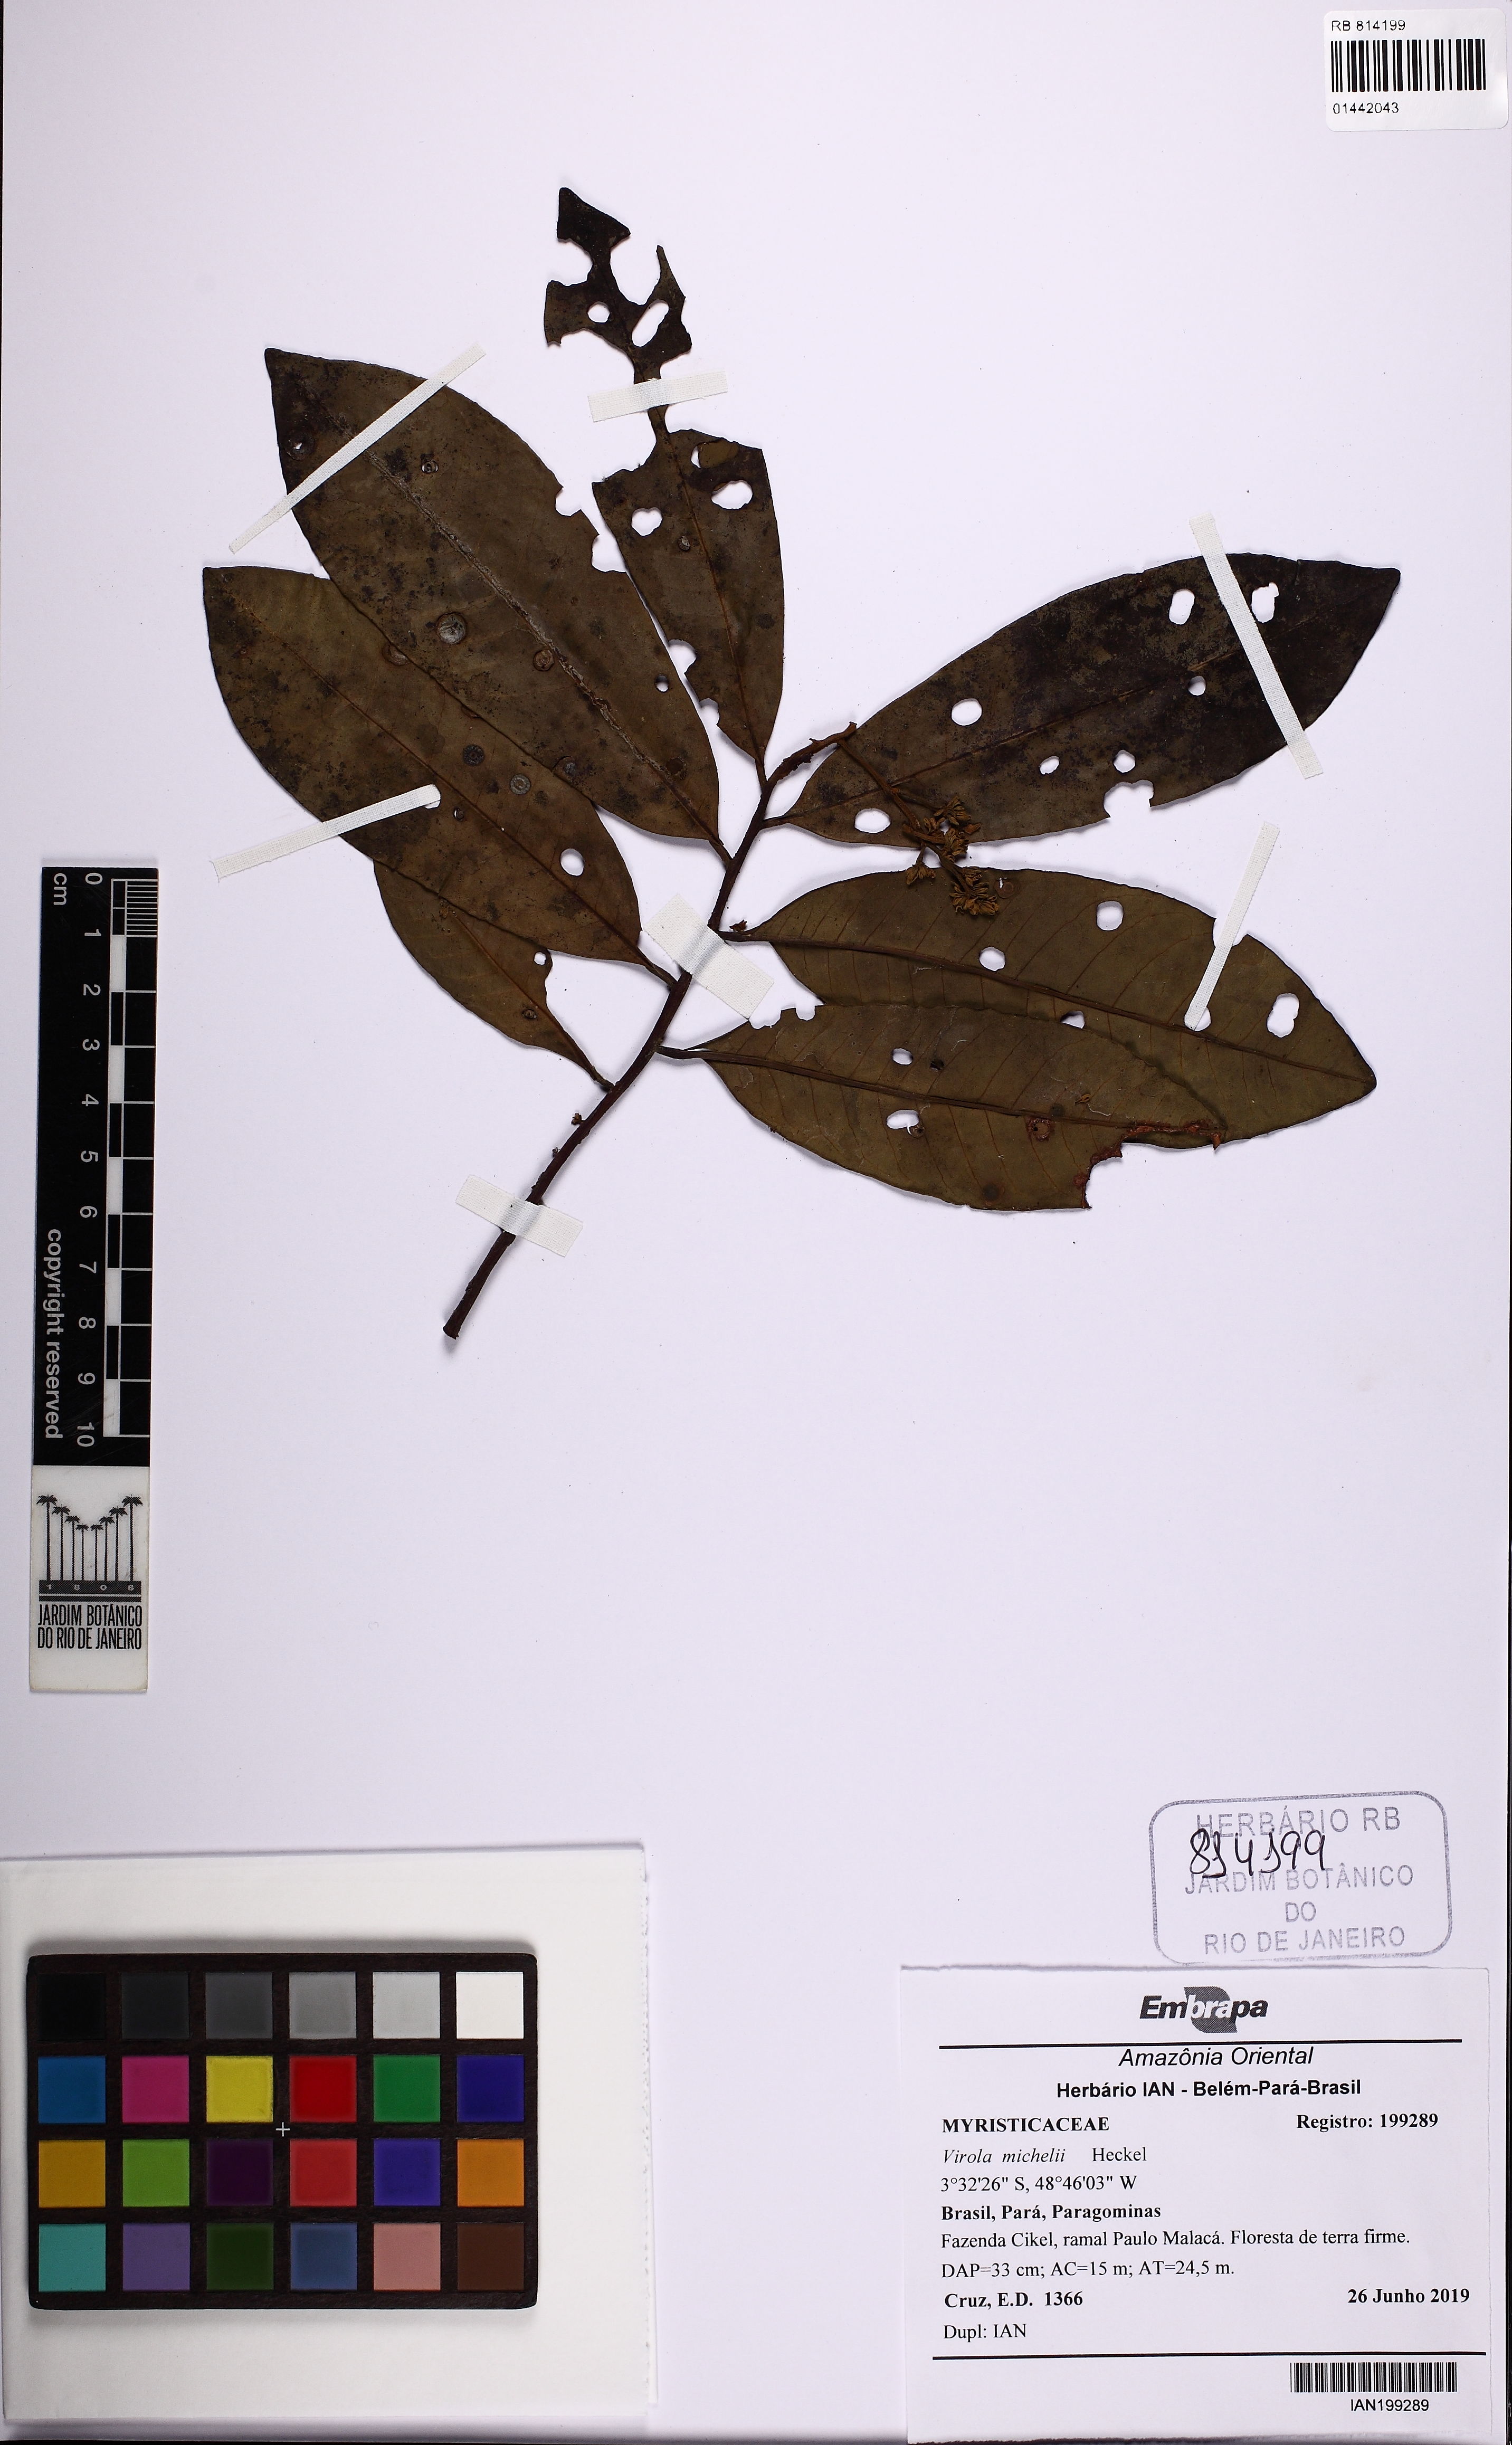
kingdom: Plantae
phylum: Tracheophyta
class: Magnoliopsida
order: Magnoliales
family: Myristicaceae
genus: Virola
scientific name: Virola michelii
